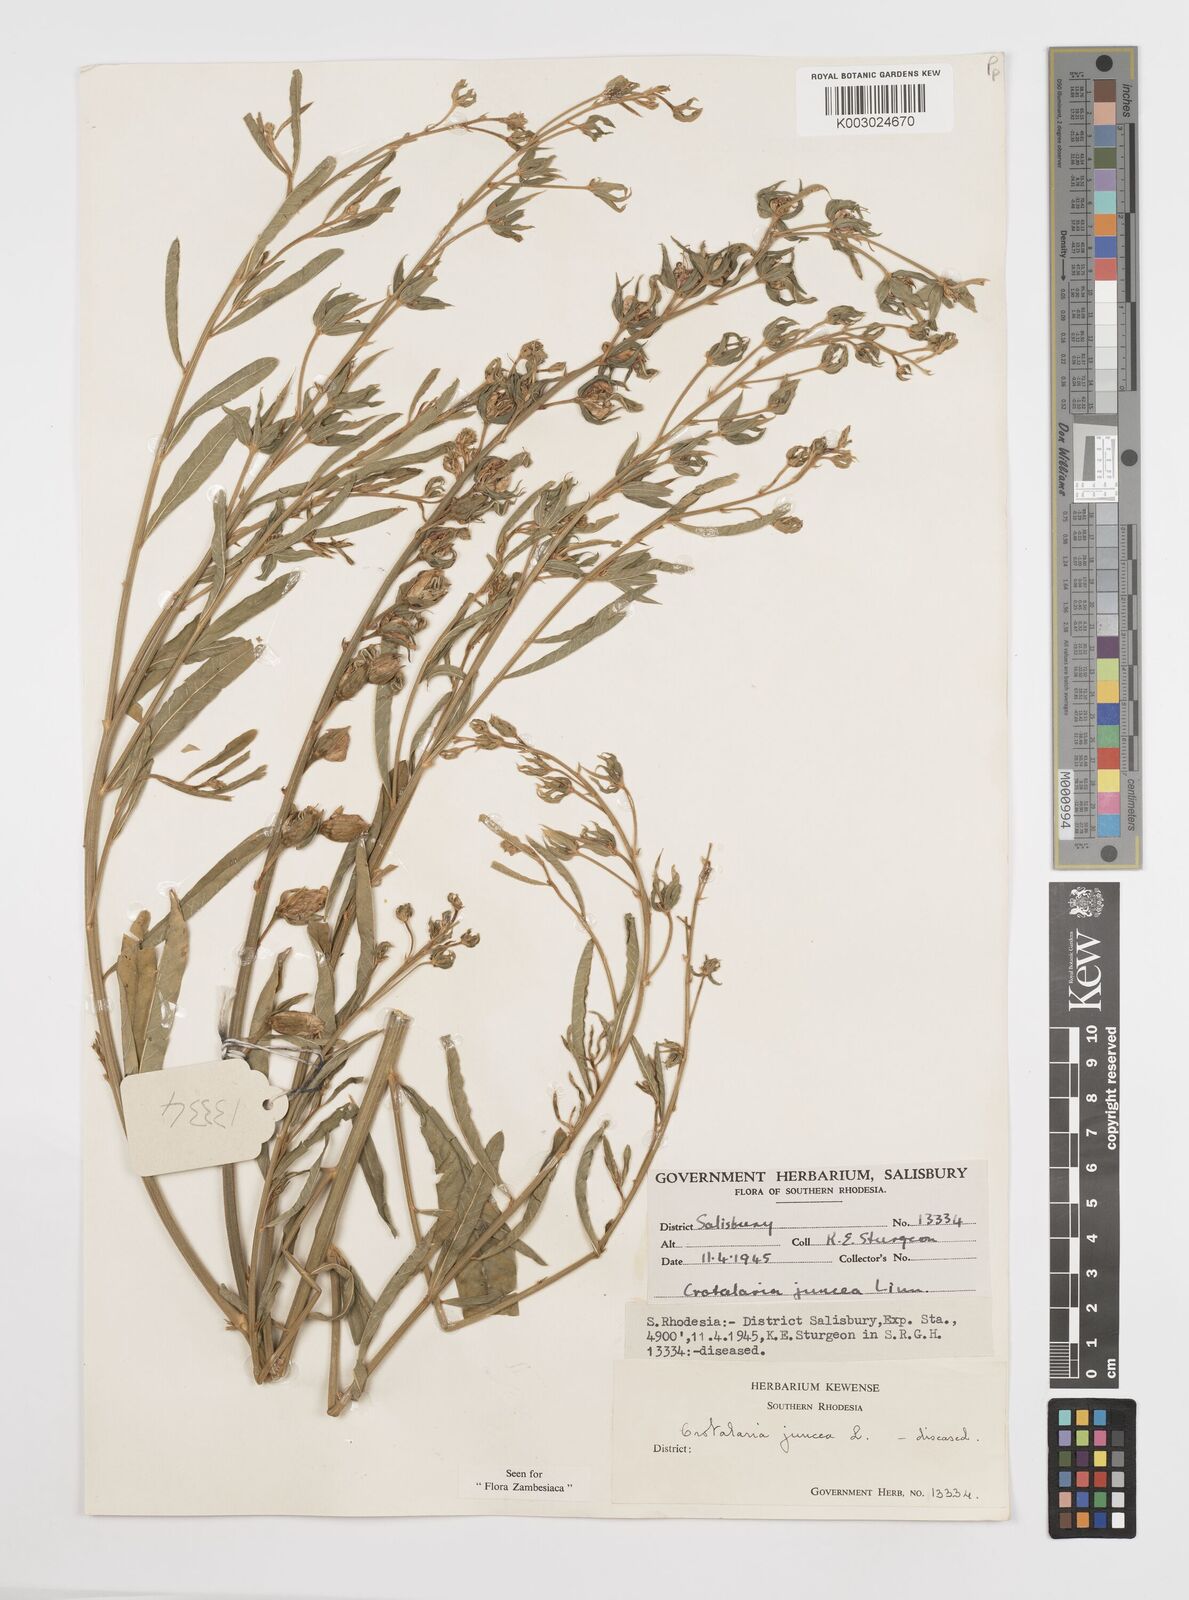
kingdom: Plantae
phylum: Tracheophyta
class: Magnoliopsida
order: Fabales
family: Fabaceae
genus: Crotalaria
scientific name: Crotalaria juncea
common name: Sunn hemp
